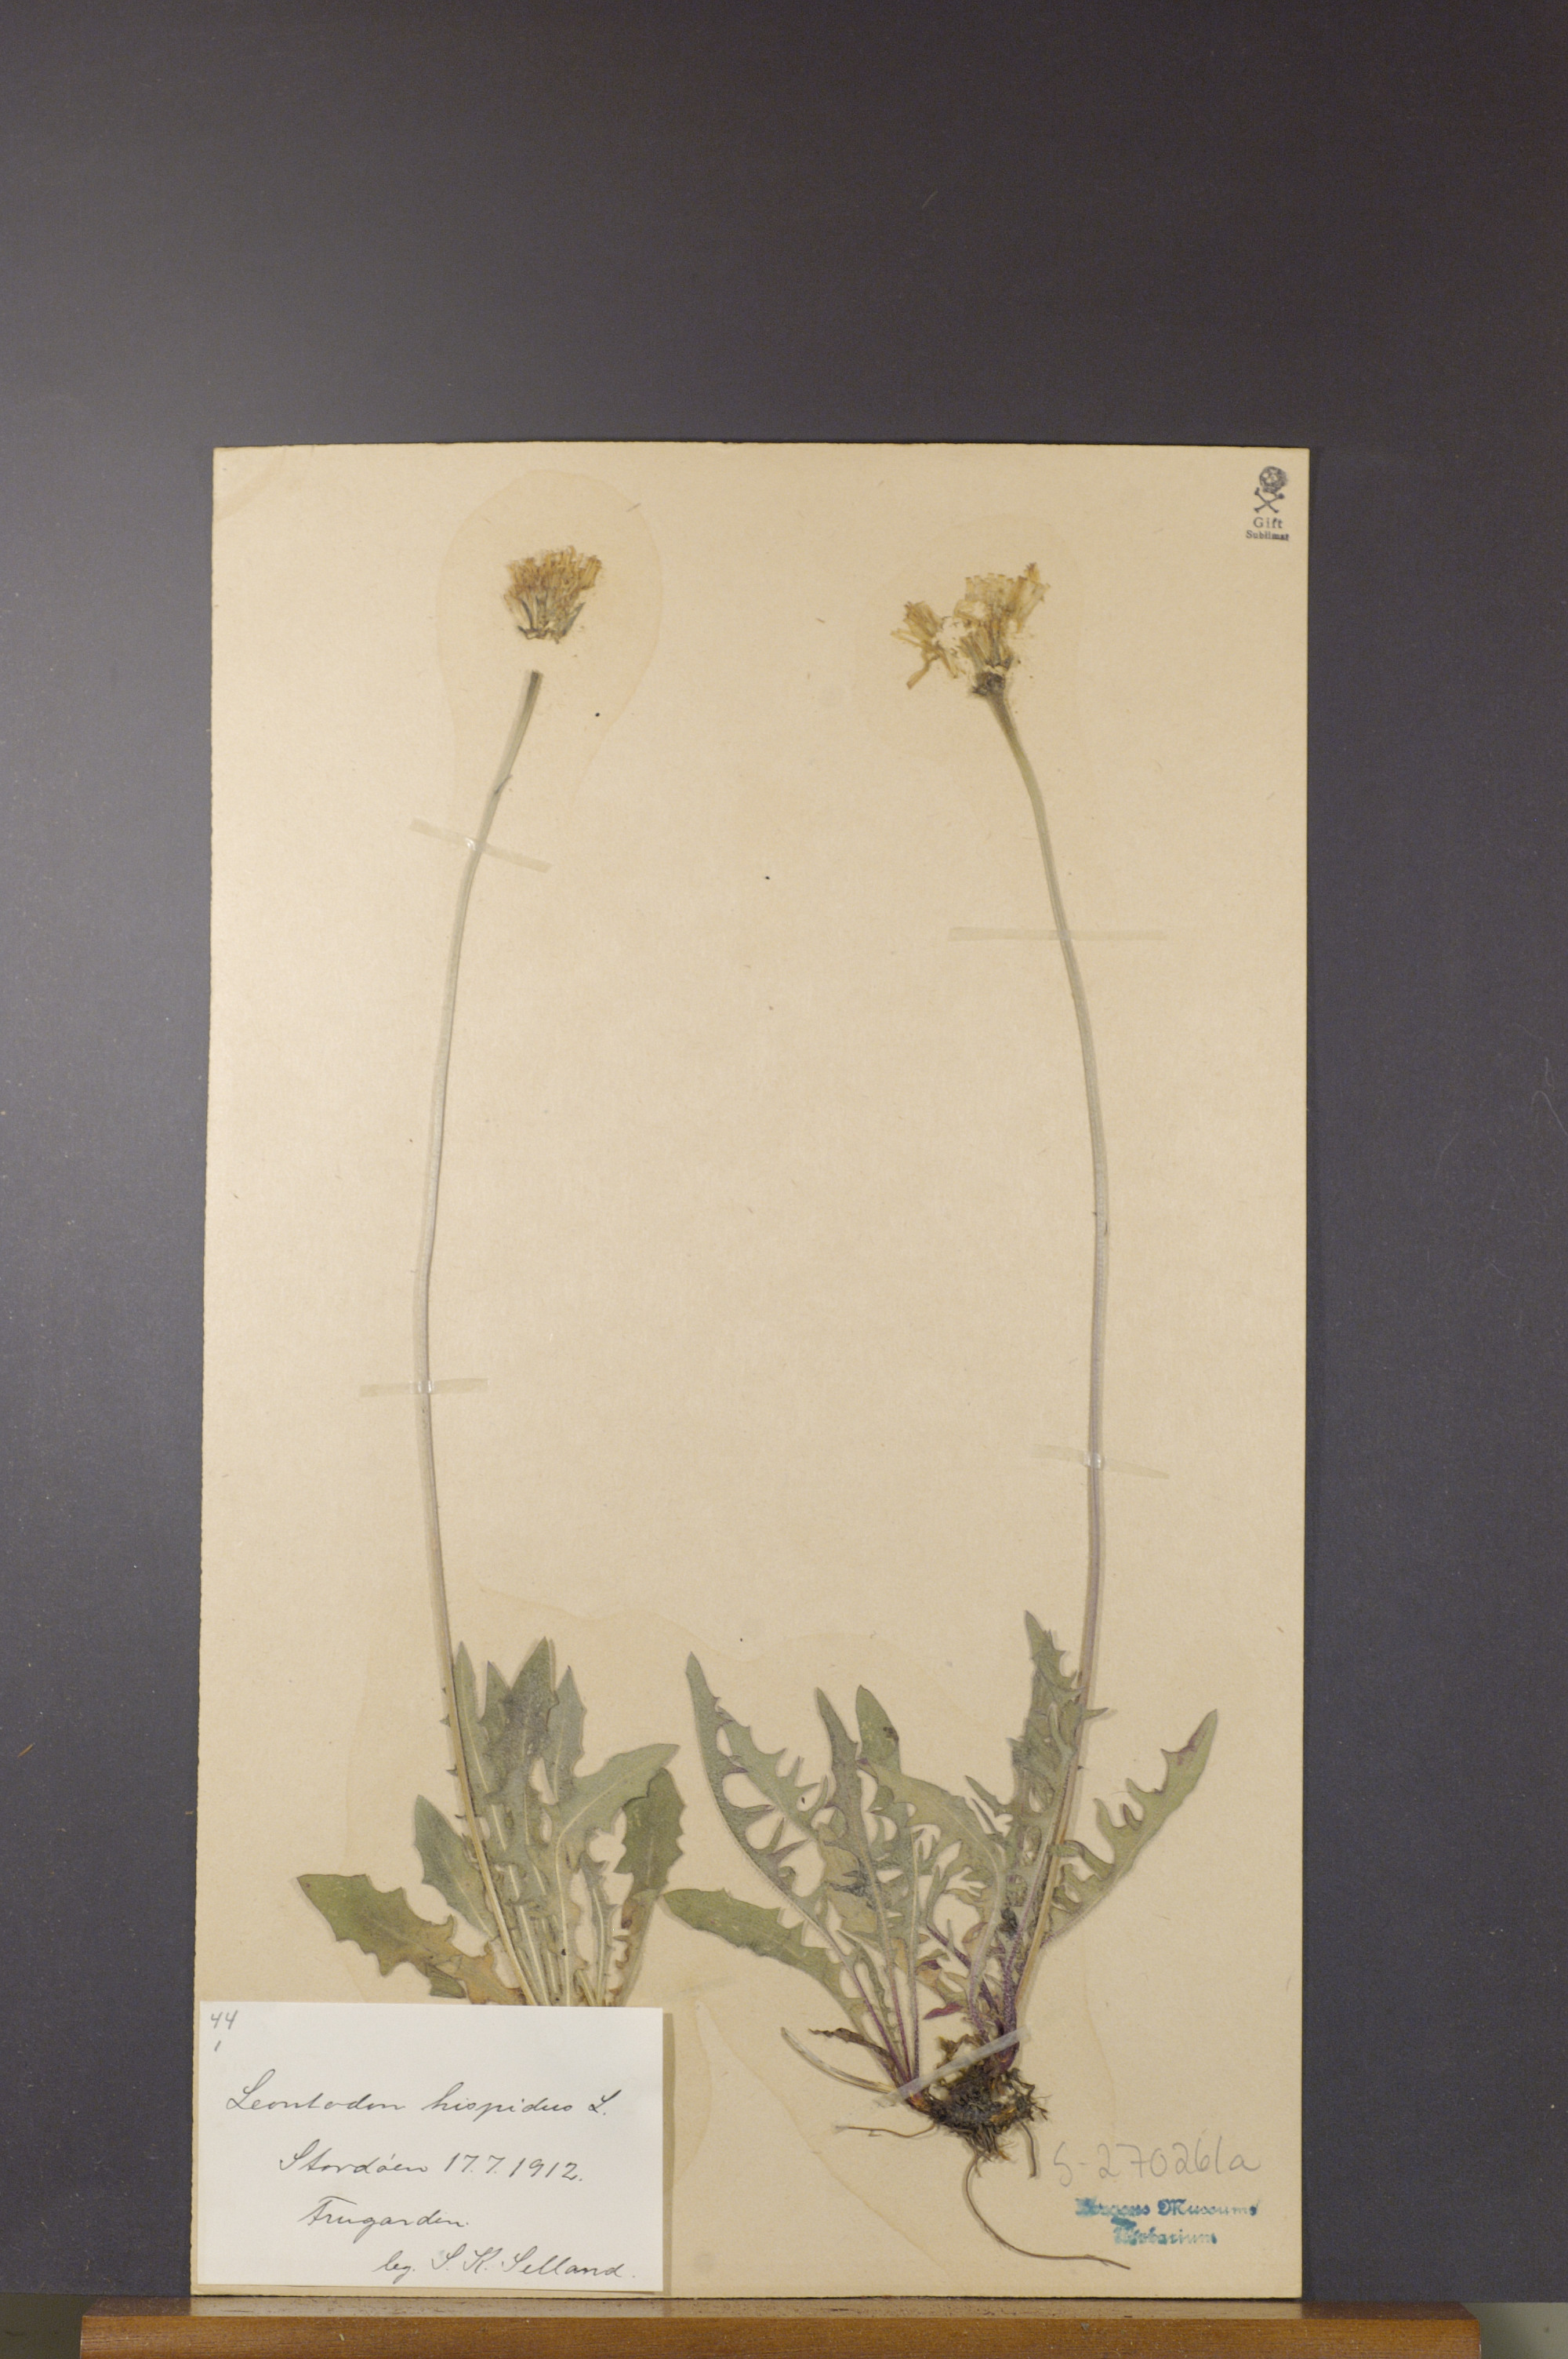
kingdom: Plantae
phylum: Tracheophyta
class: Magnoliopsida
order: Asterales
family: Asteraceae
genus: Leontodon
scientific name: Leontodon hispidus
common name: Rough hawkbit
